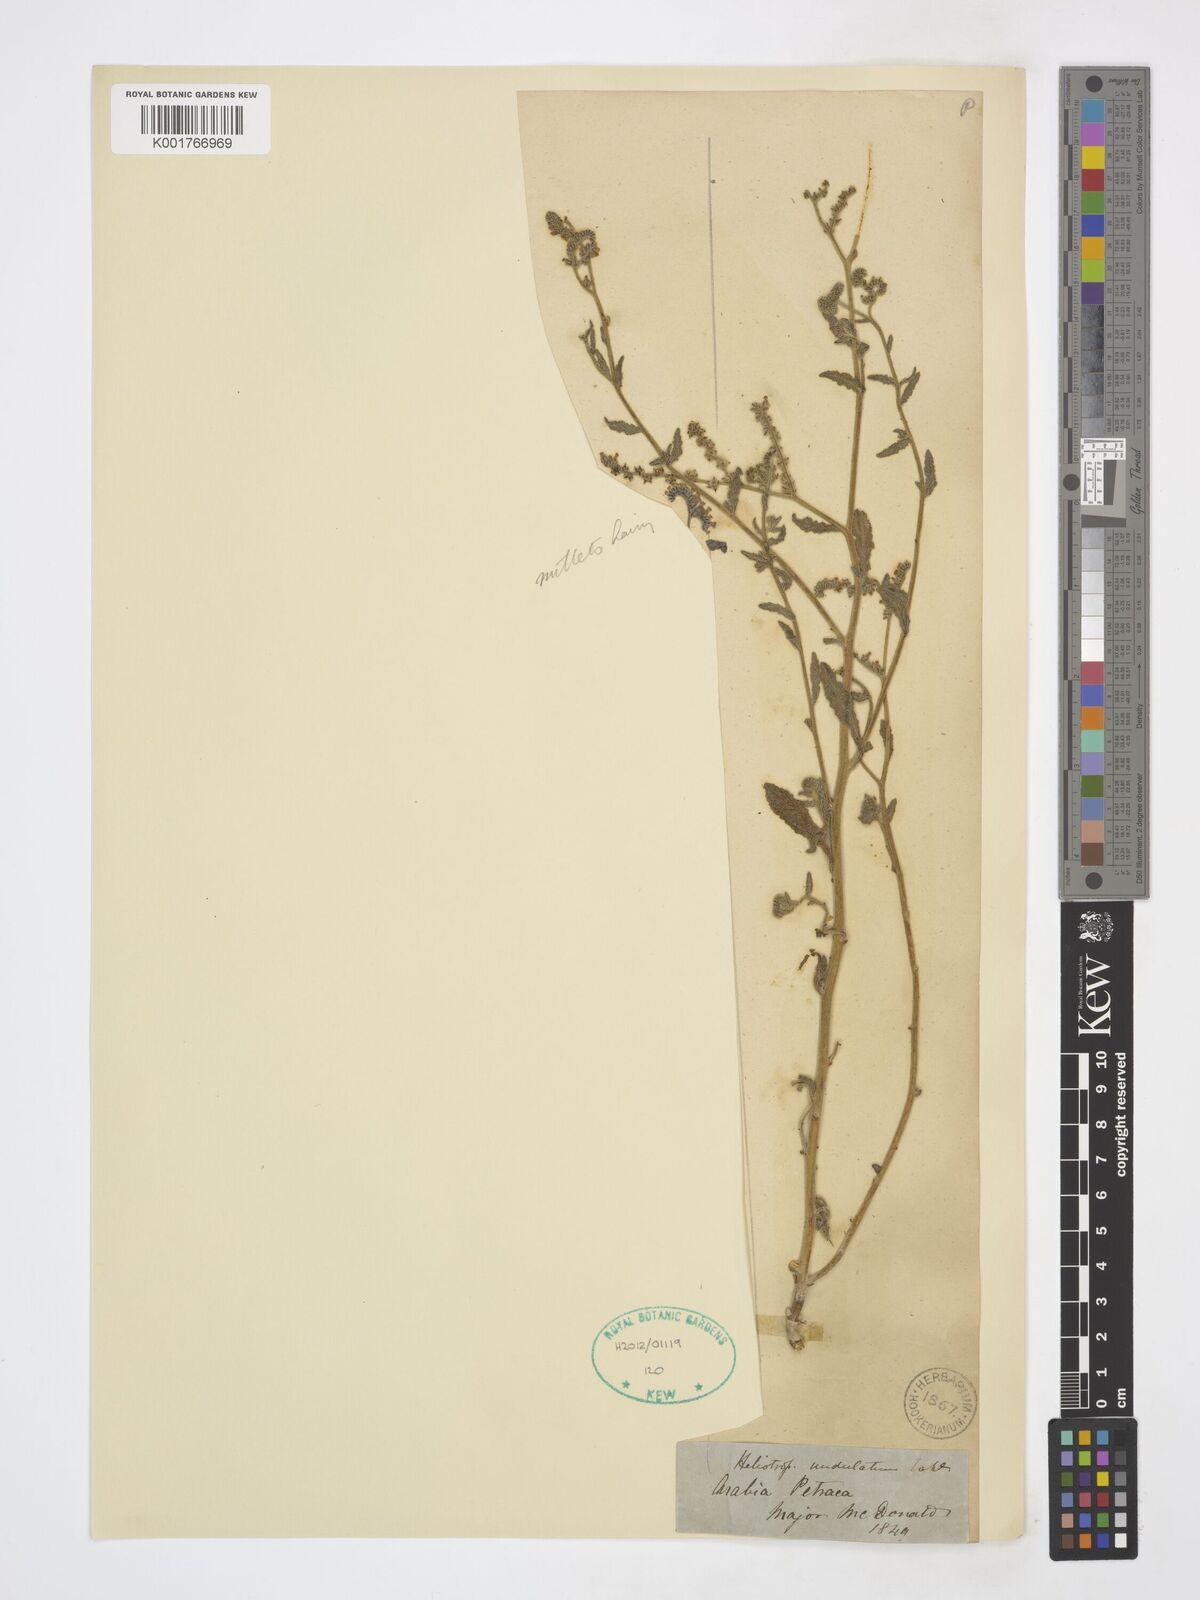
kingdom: Plantae
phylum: Tracheophyta
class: Magnoliopsida
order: Boraginales
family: Heliotropiaceae
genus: Heliotropium
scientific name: Heliotropium bacciferum
